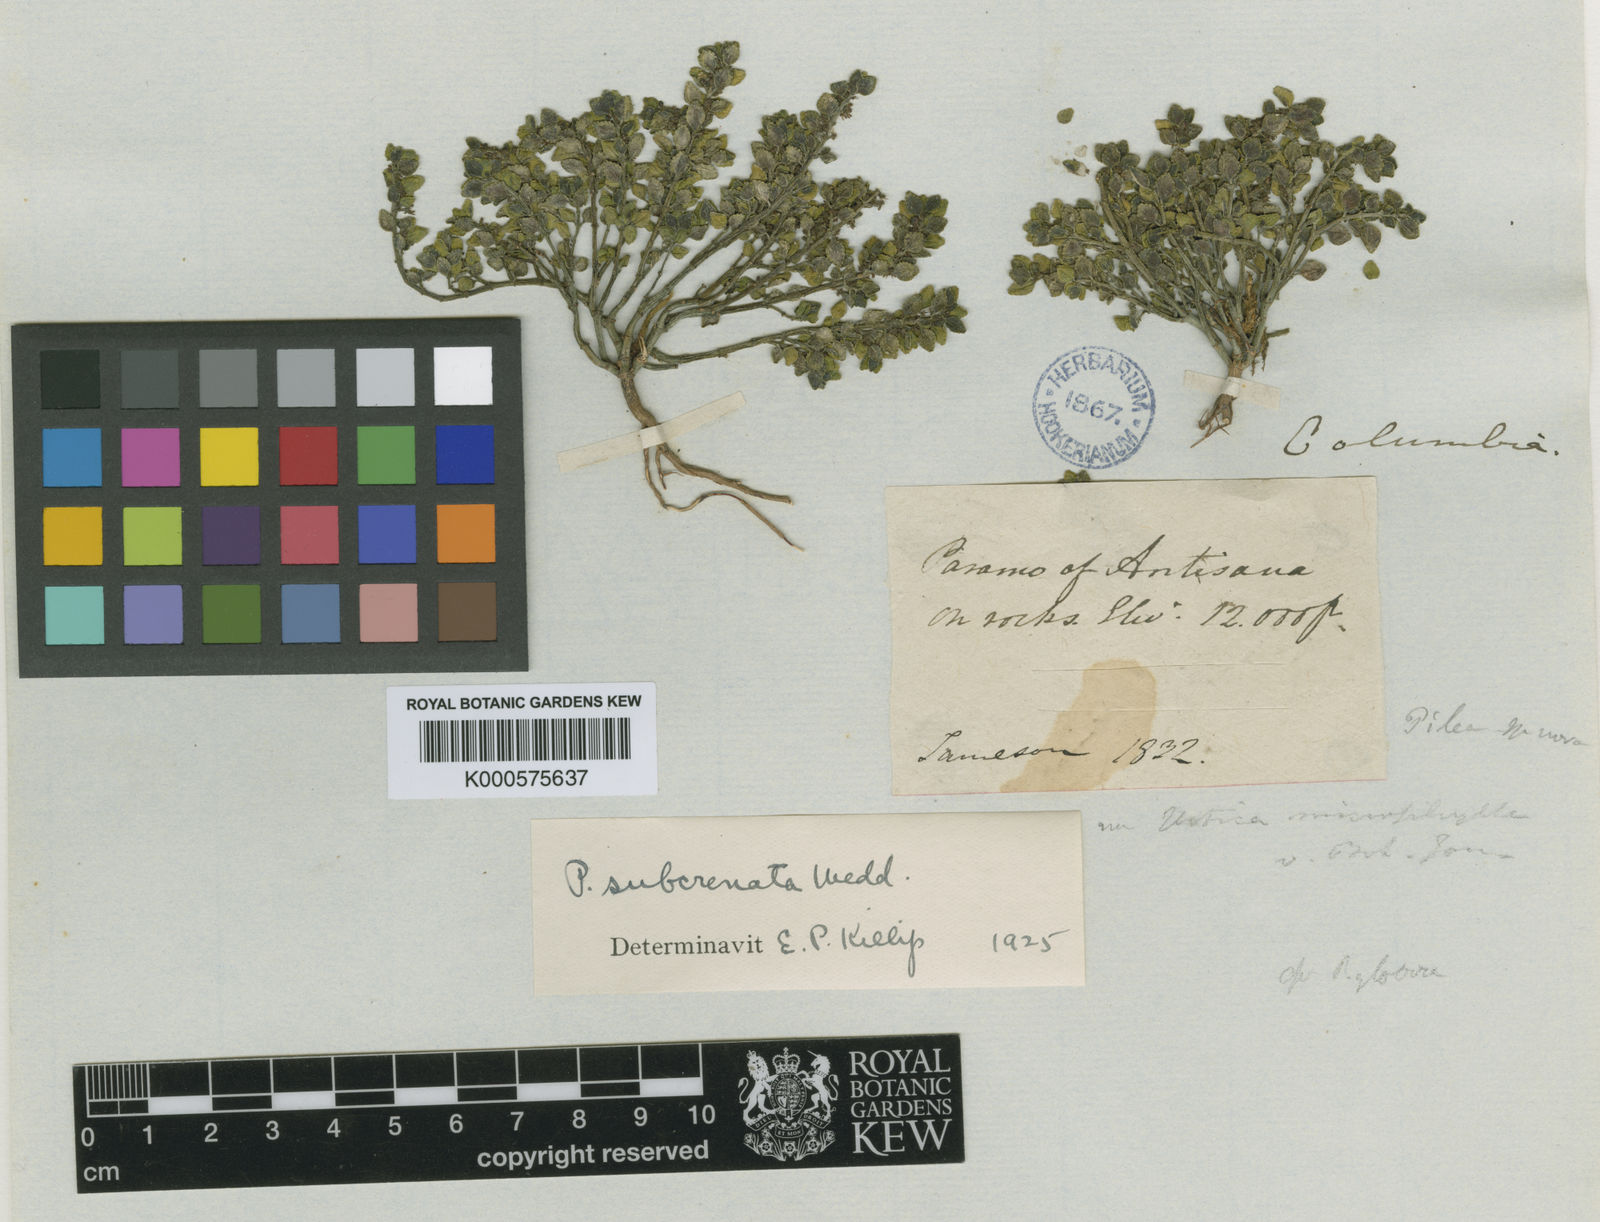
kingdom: Plantae
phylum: Tracheophyta
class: Magnoliopsida
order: Rosales
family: Urticaceae
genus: Pilea
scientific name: Pilea trianthemoides
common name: Artillery plant
